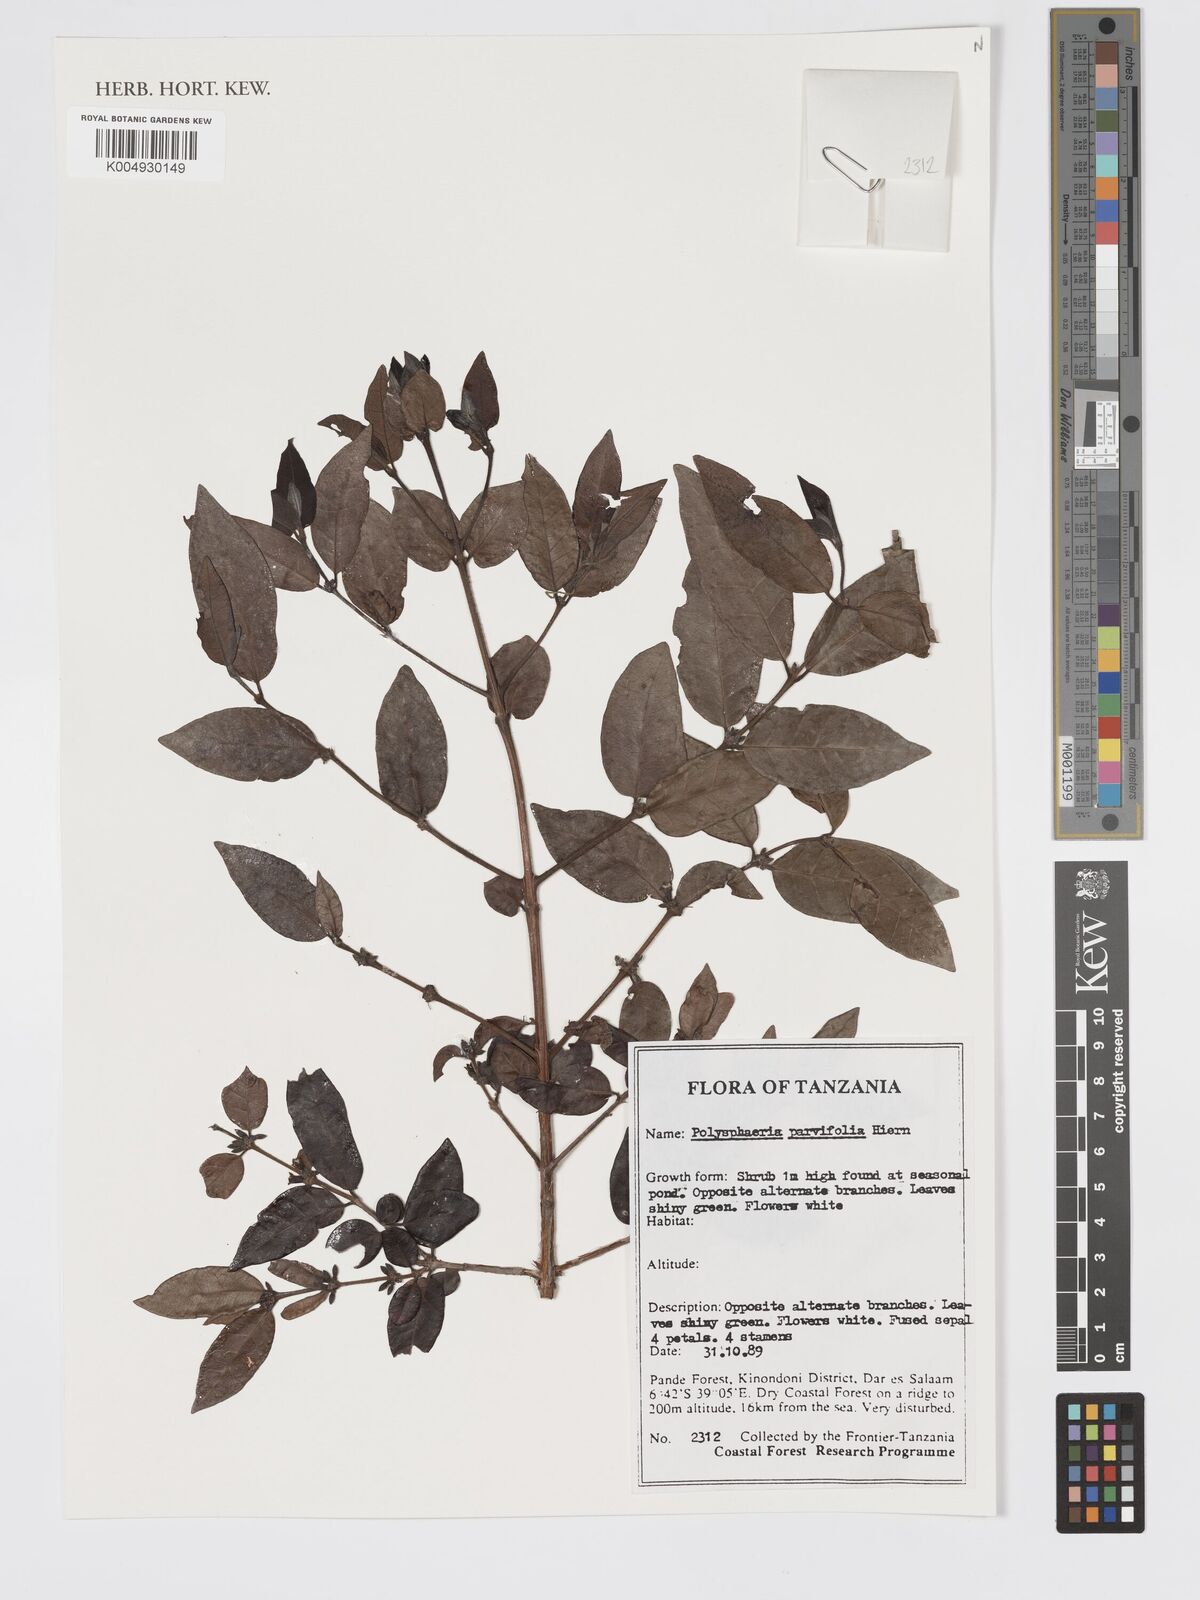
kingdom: Plantae
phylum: Tracheophyta
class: Magnoliopsida
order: Gentianales
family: Rubiaceae
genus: Polysphaeria
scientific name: Polysphaeria parvifolia
